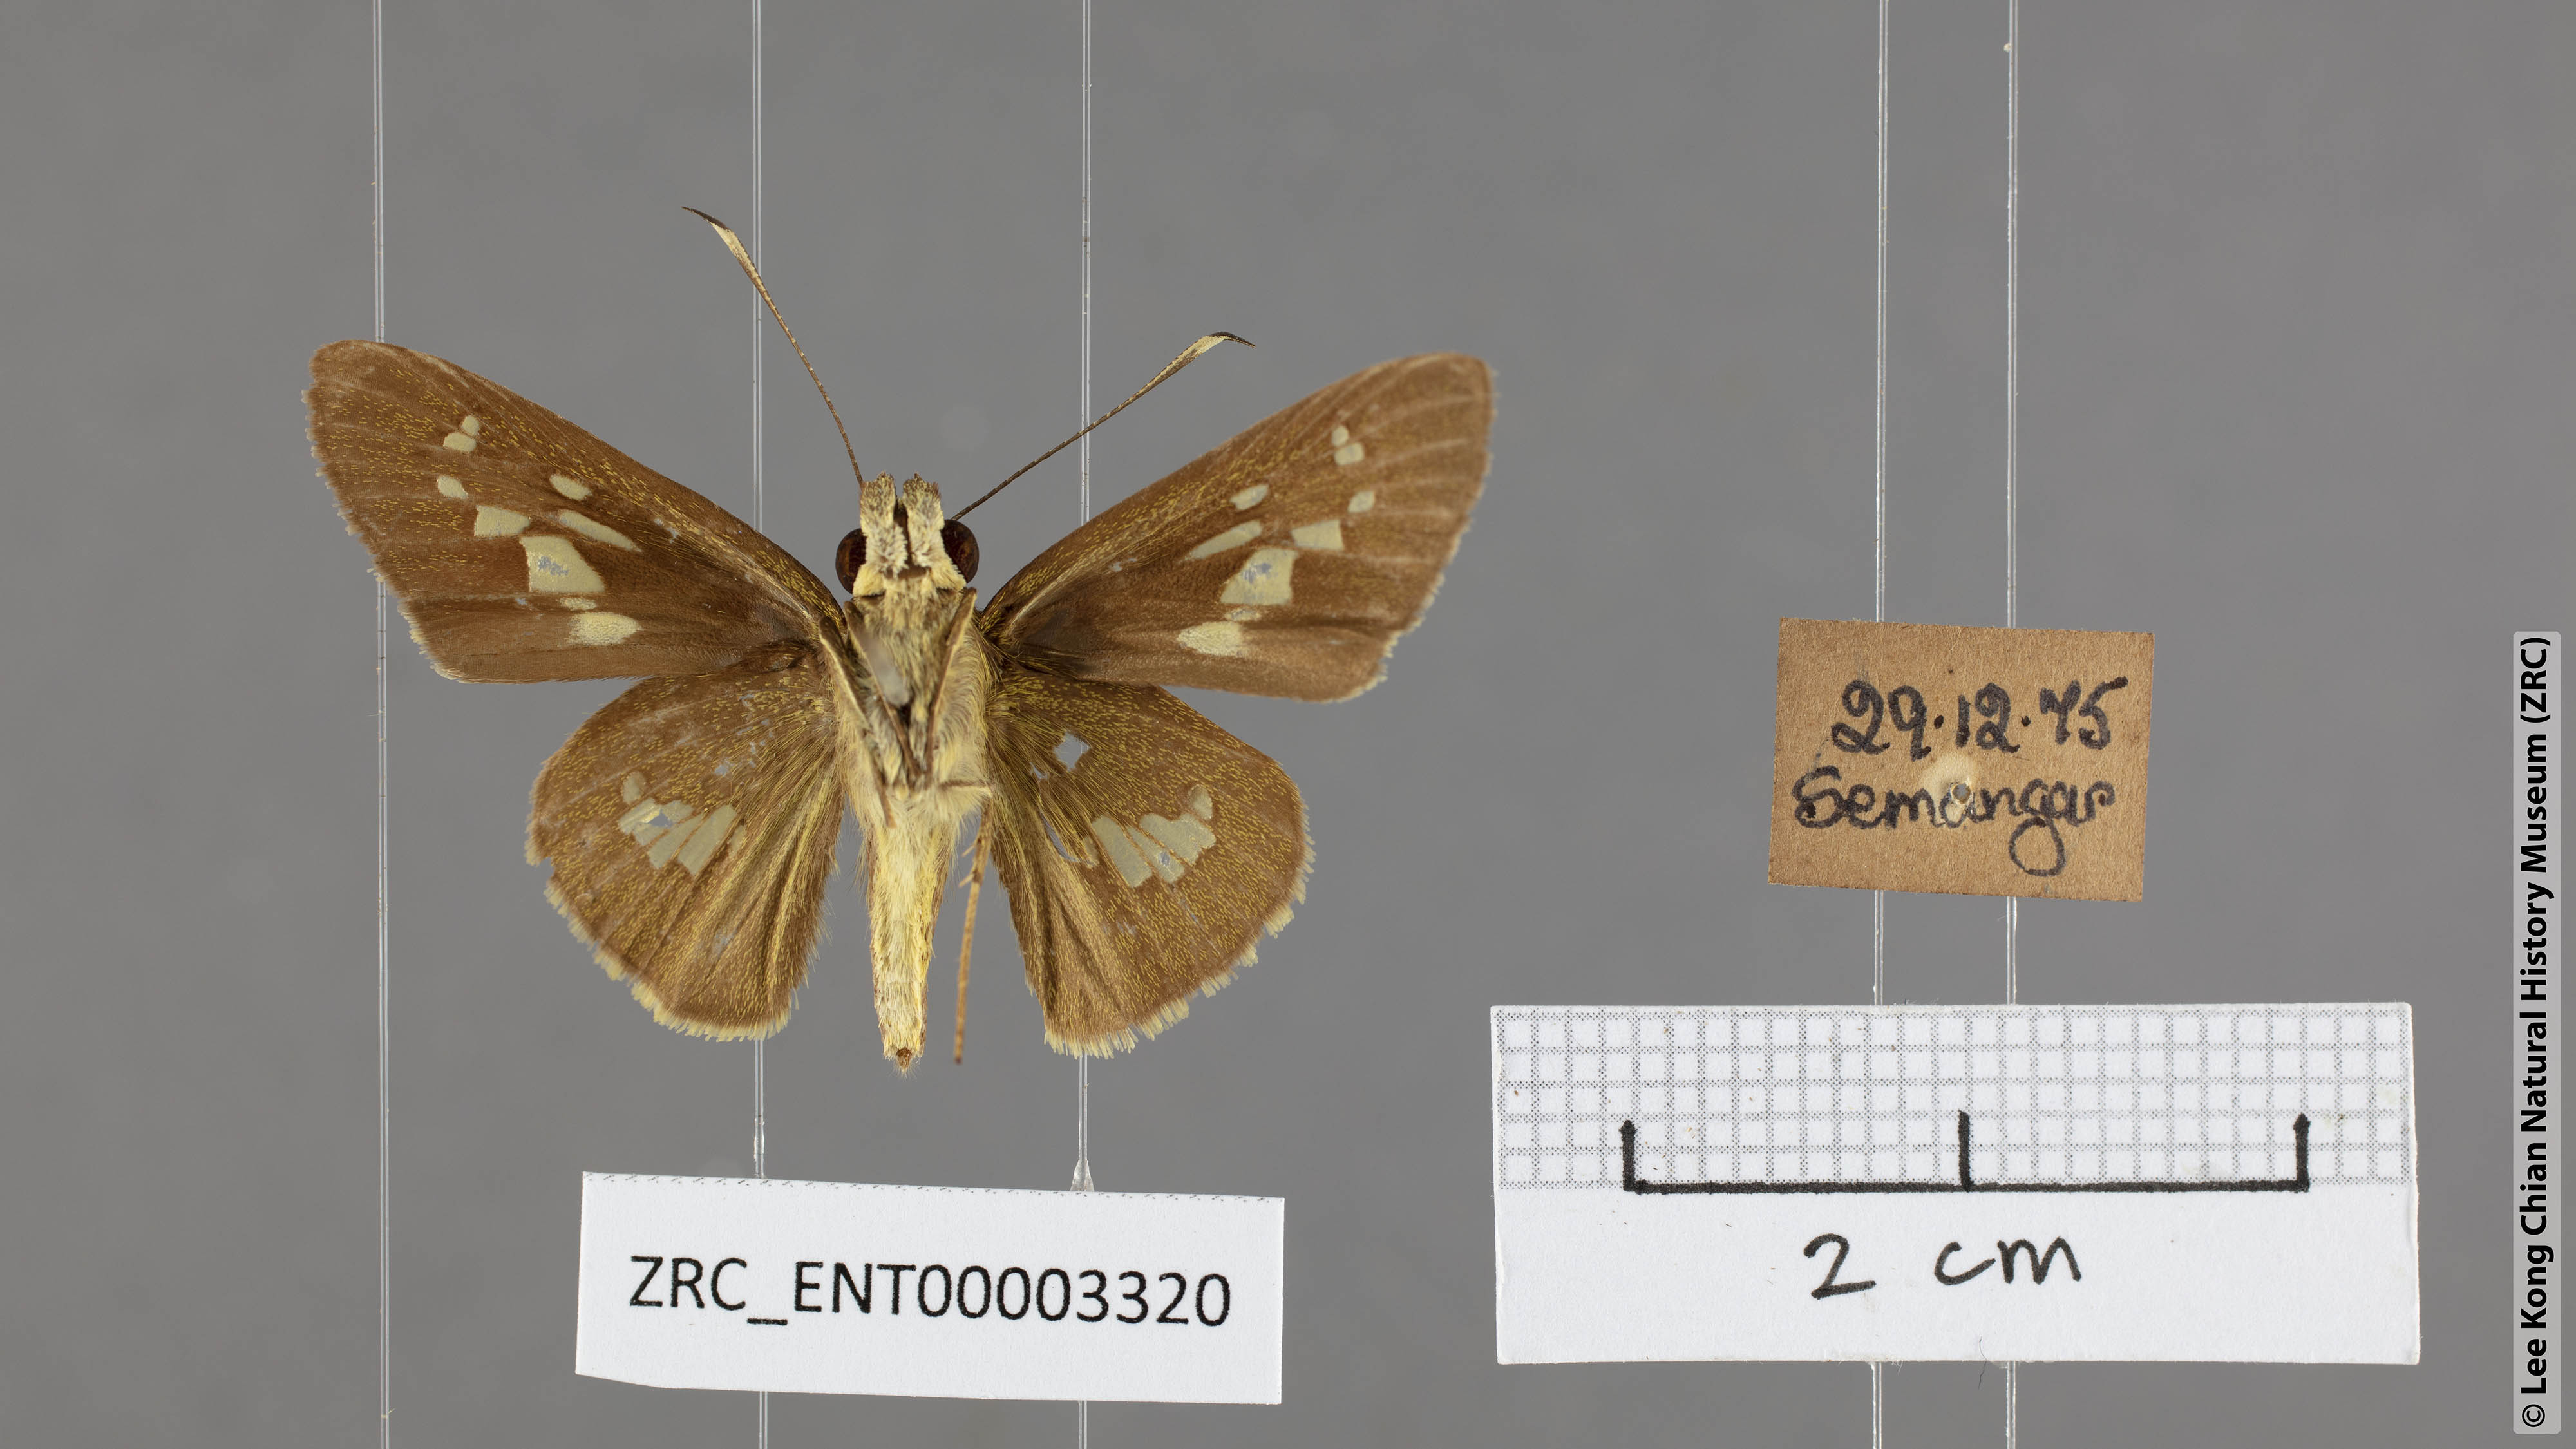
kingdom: Animalia
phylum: Arthropoda
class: Insecta
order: Lepidoptera
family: Hesperiidae
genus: Isma
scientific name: Isma umbrosa
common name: Large long-banded flitter
